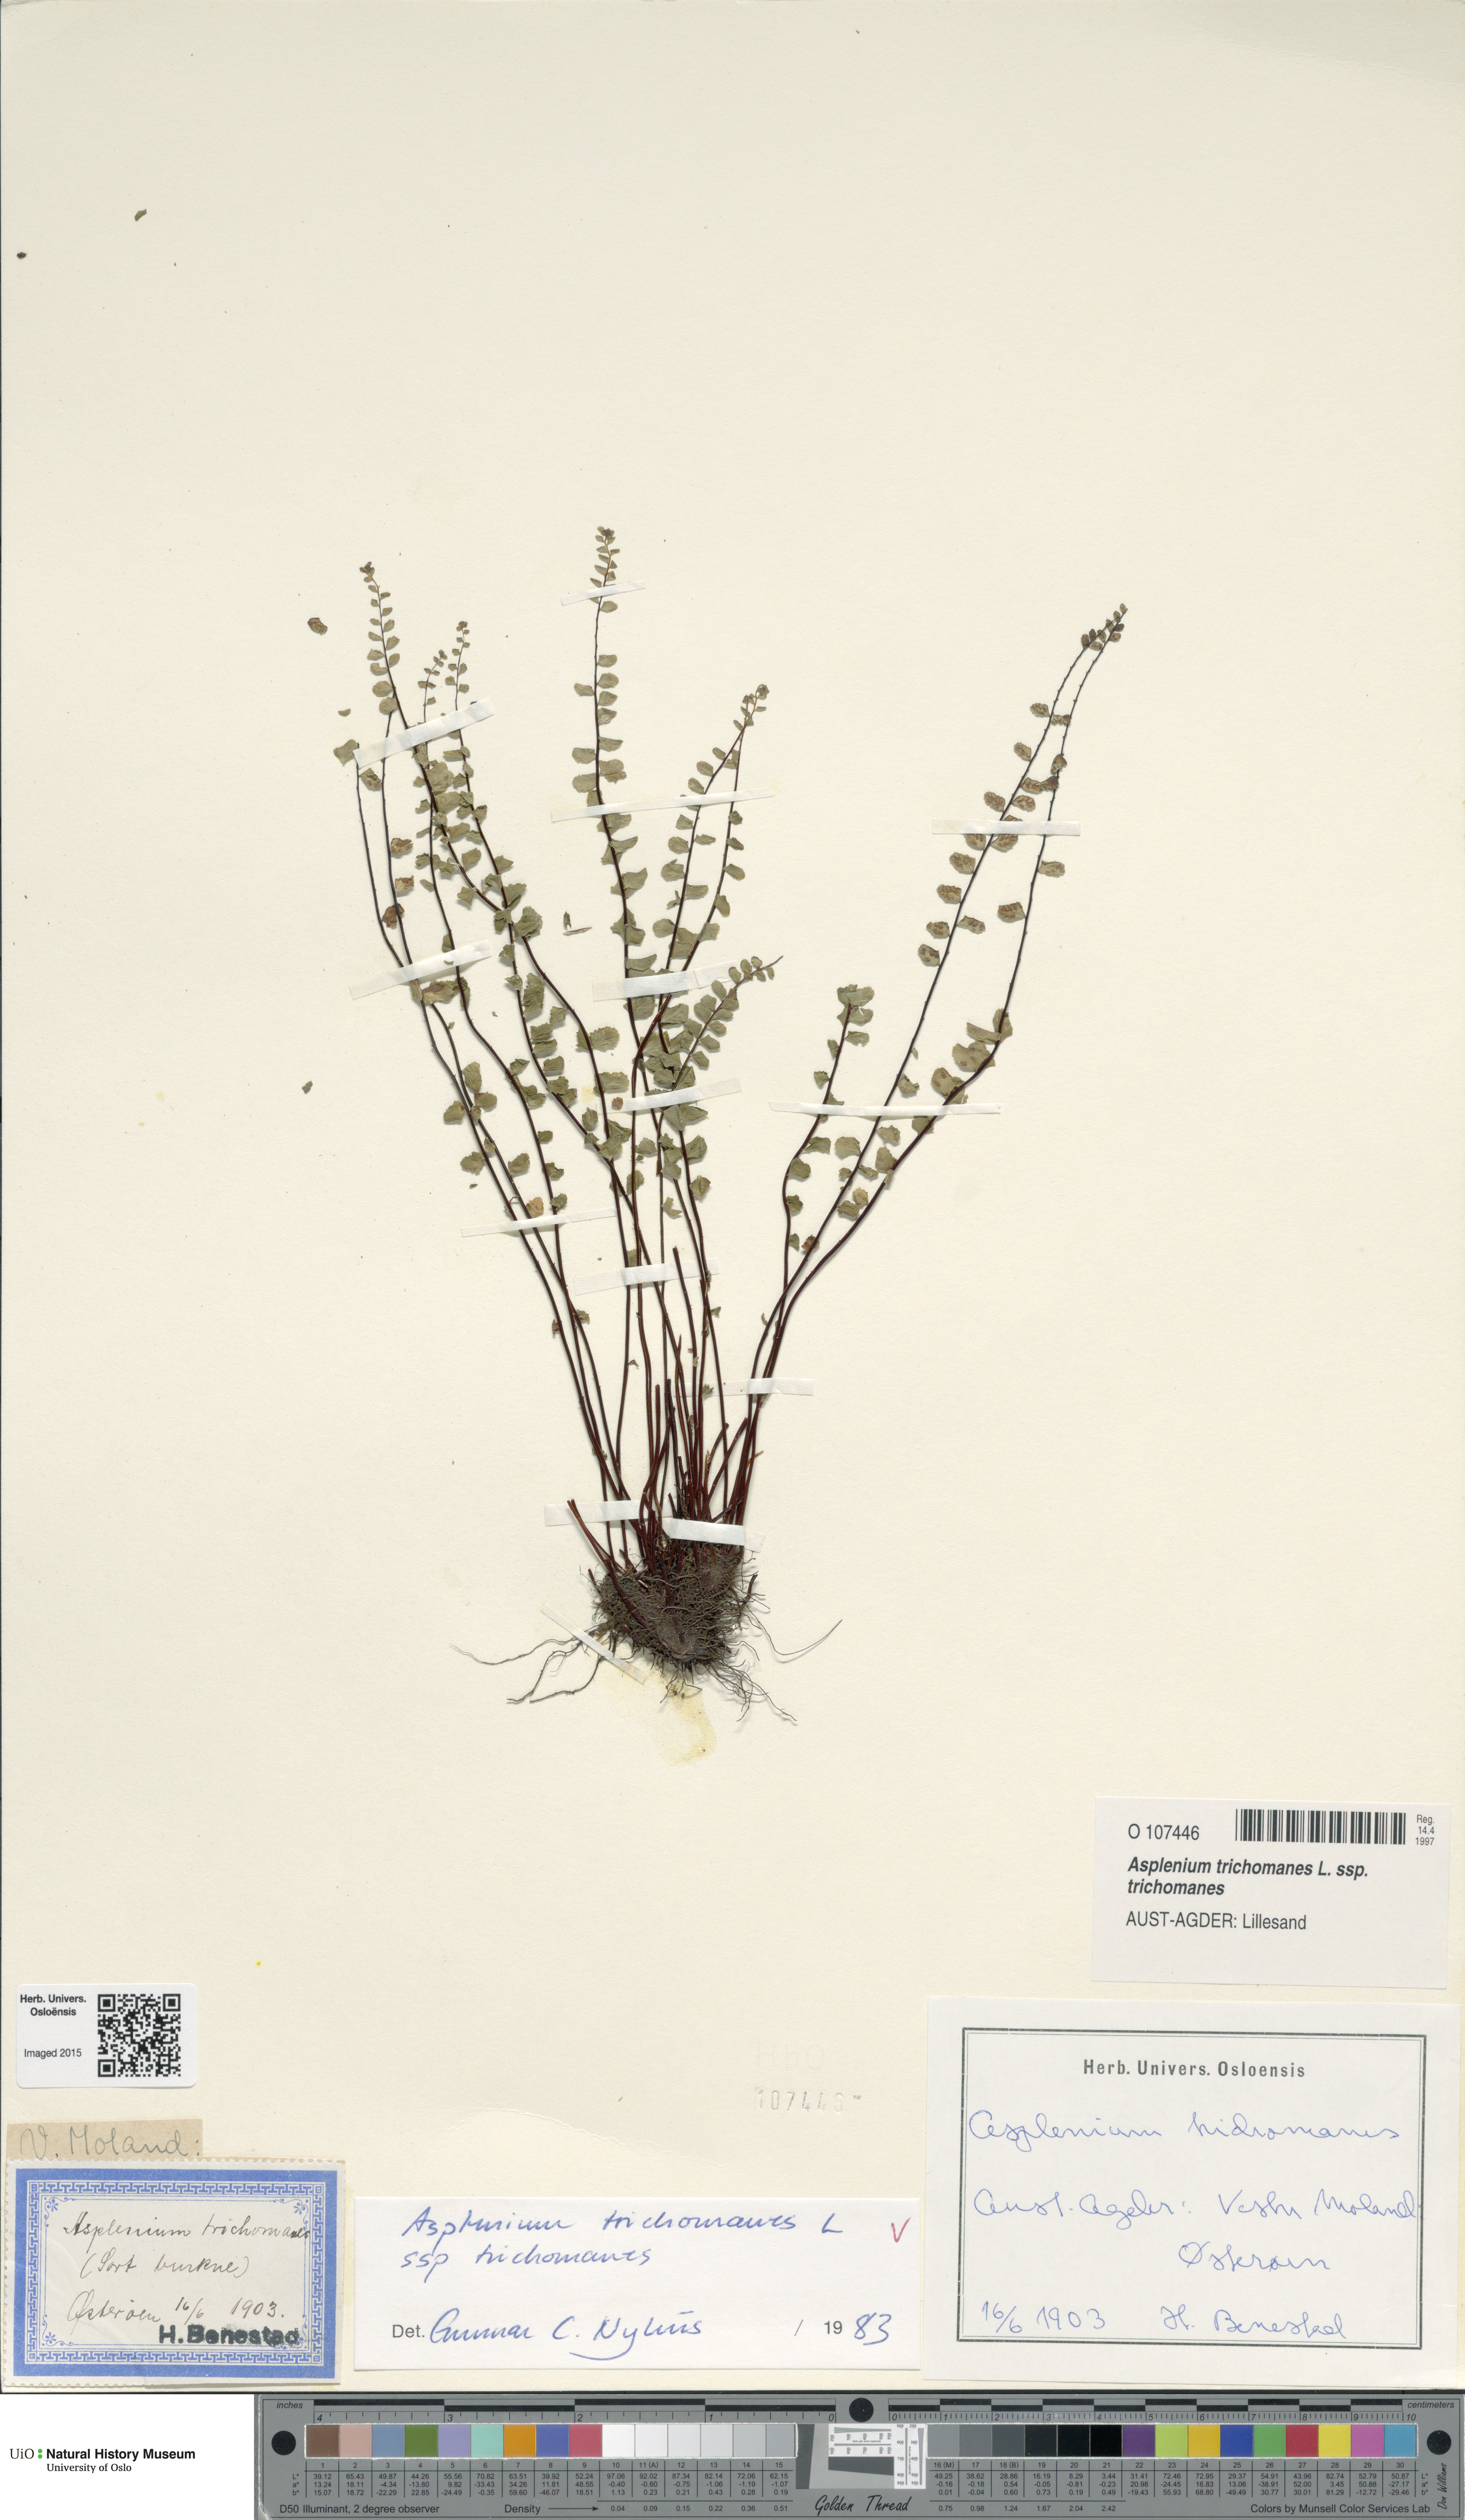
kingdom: Plantae
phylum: Tracheophyta
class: Polypodiopsida
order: Polypodiales
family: Aspleniaceae
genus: Asplenium
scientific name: Asplenium trichomanes
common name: Maidenhair spleenwort
